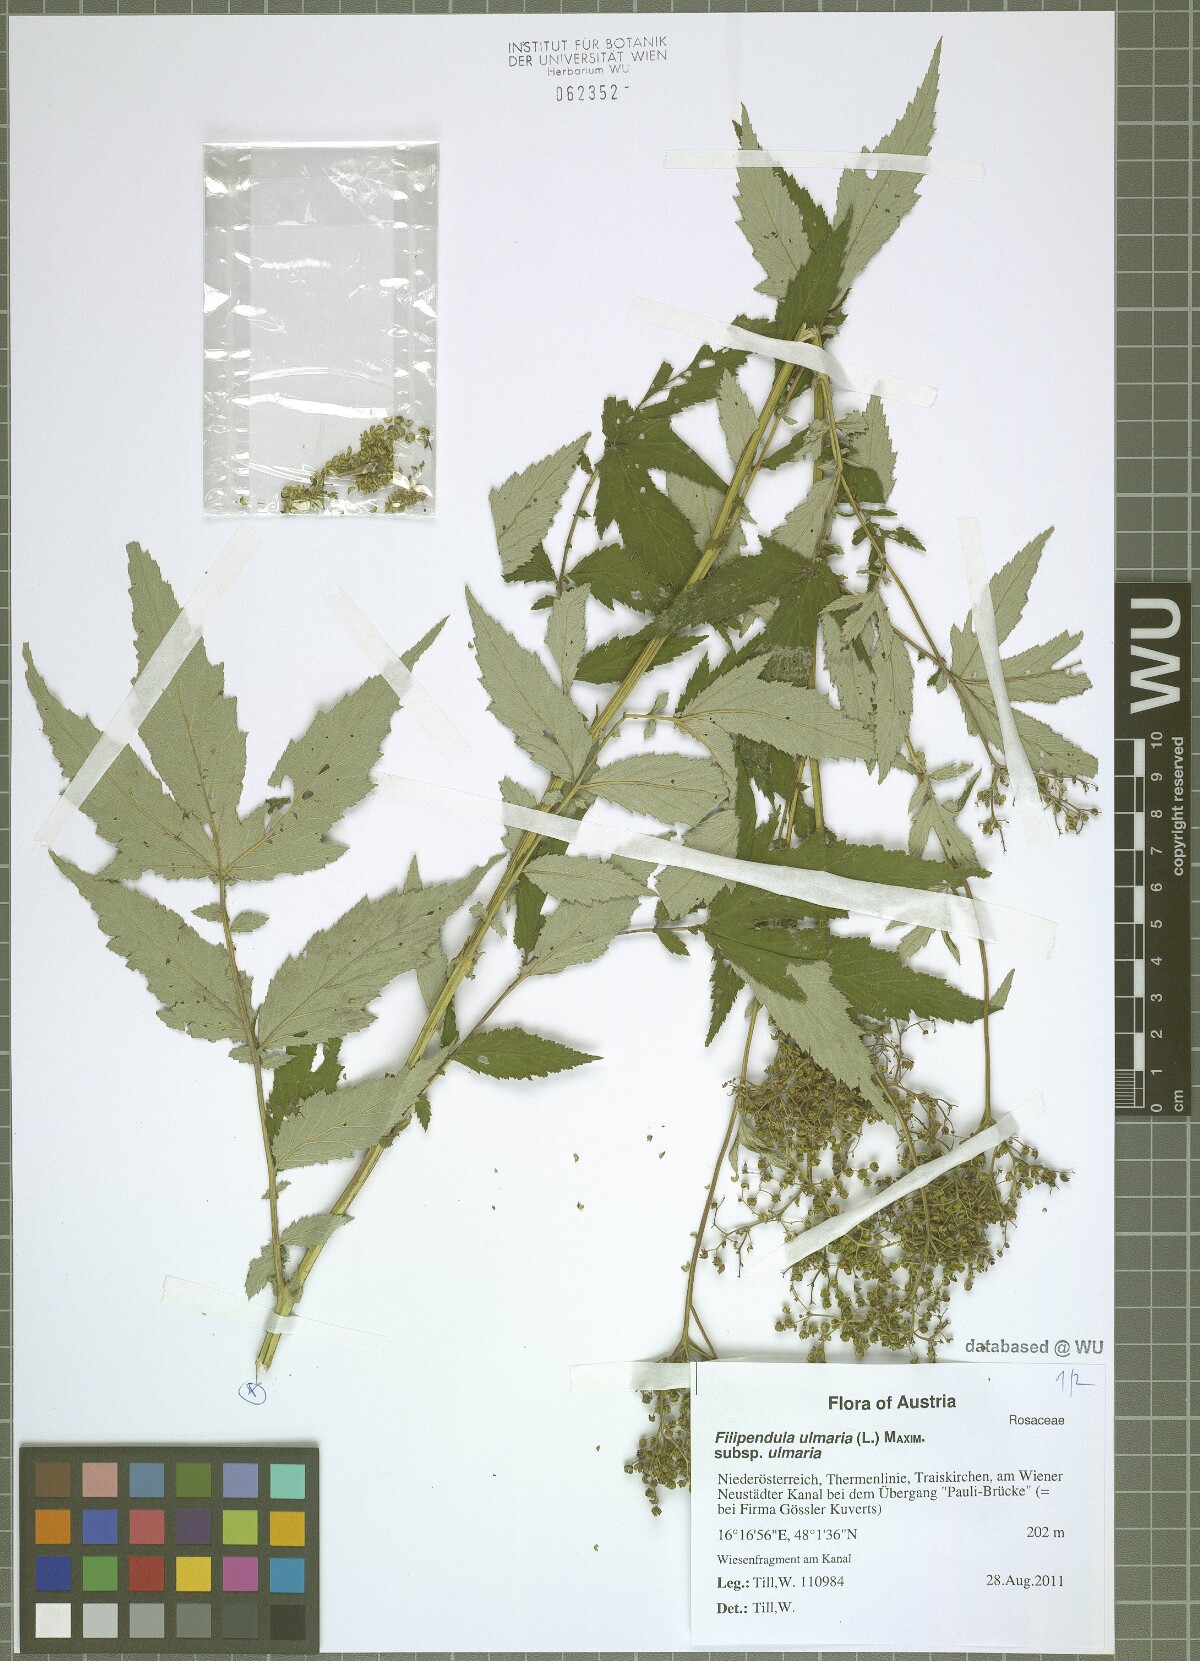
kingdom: Plantae
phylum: Tracheophyta
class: Magnoliopsida
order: Rosales
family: Rosaceae
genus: Filipendula
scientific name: Filipendula ulmaria
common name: Meadowsweet
